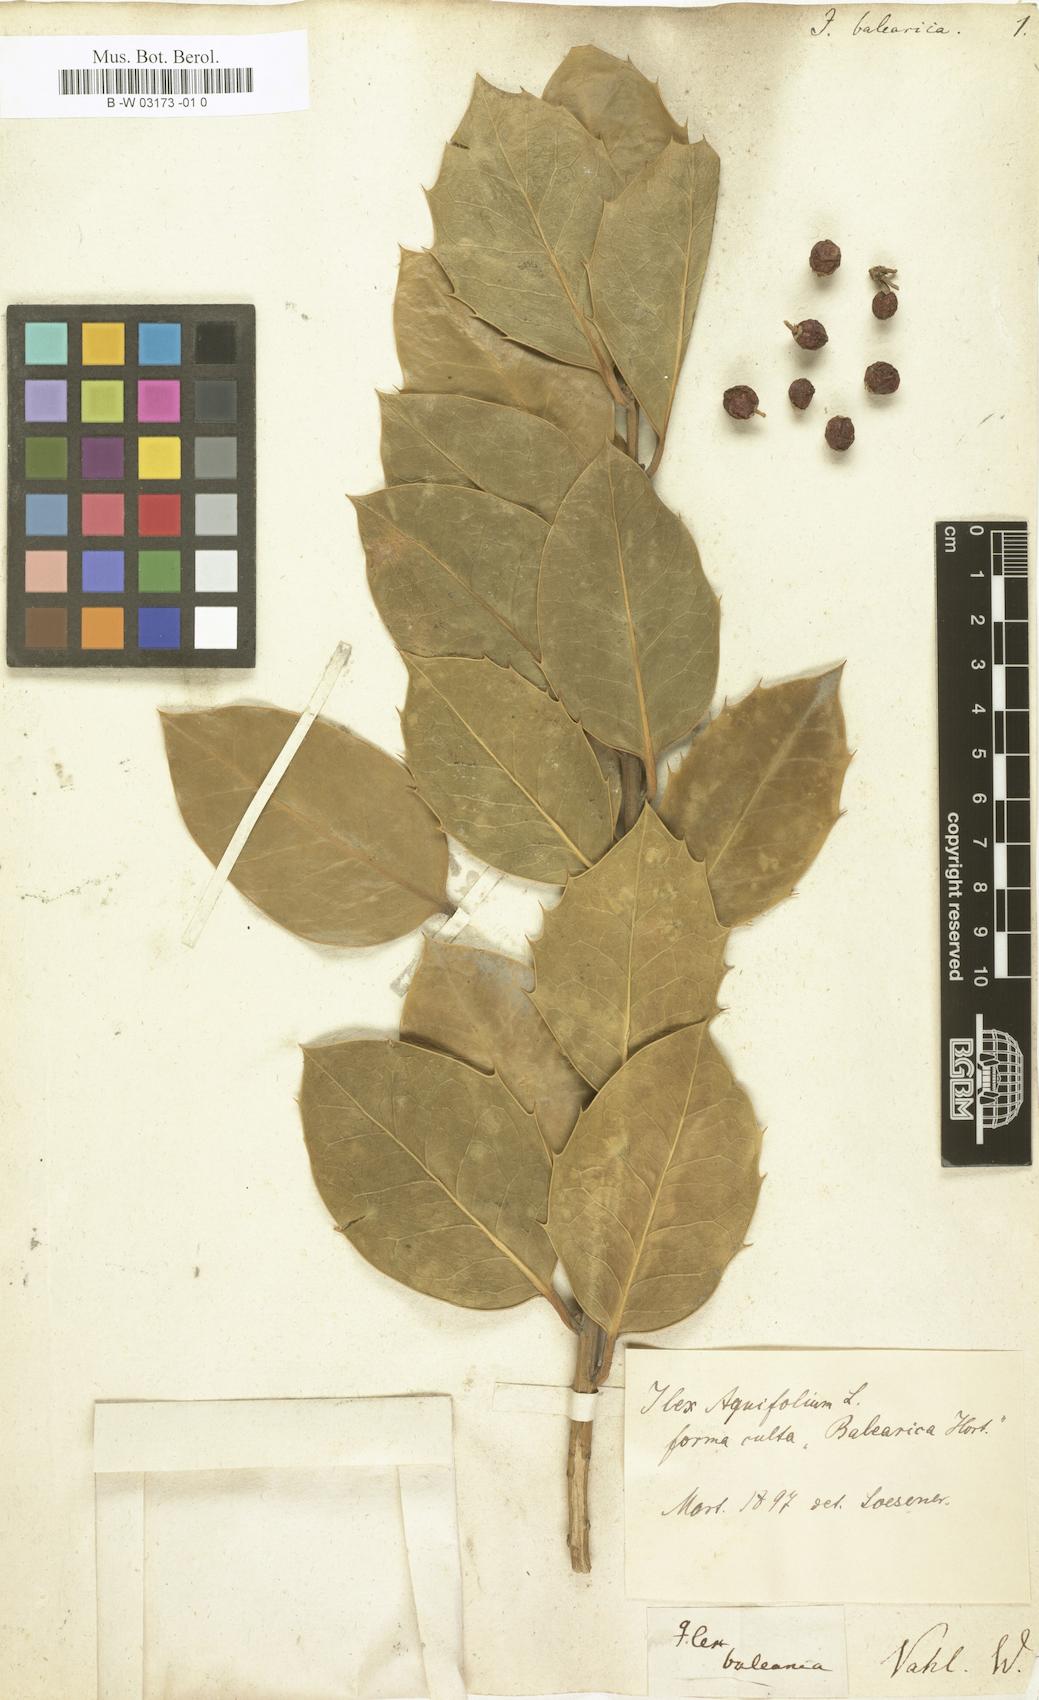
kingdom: Plantae
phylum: Tracheophyta
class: Magnoliopsida
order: Aquifoliales
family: Aquifoliaceae
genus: Ilex
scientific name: Ilex aquifolium
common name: English holly
